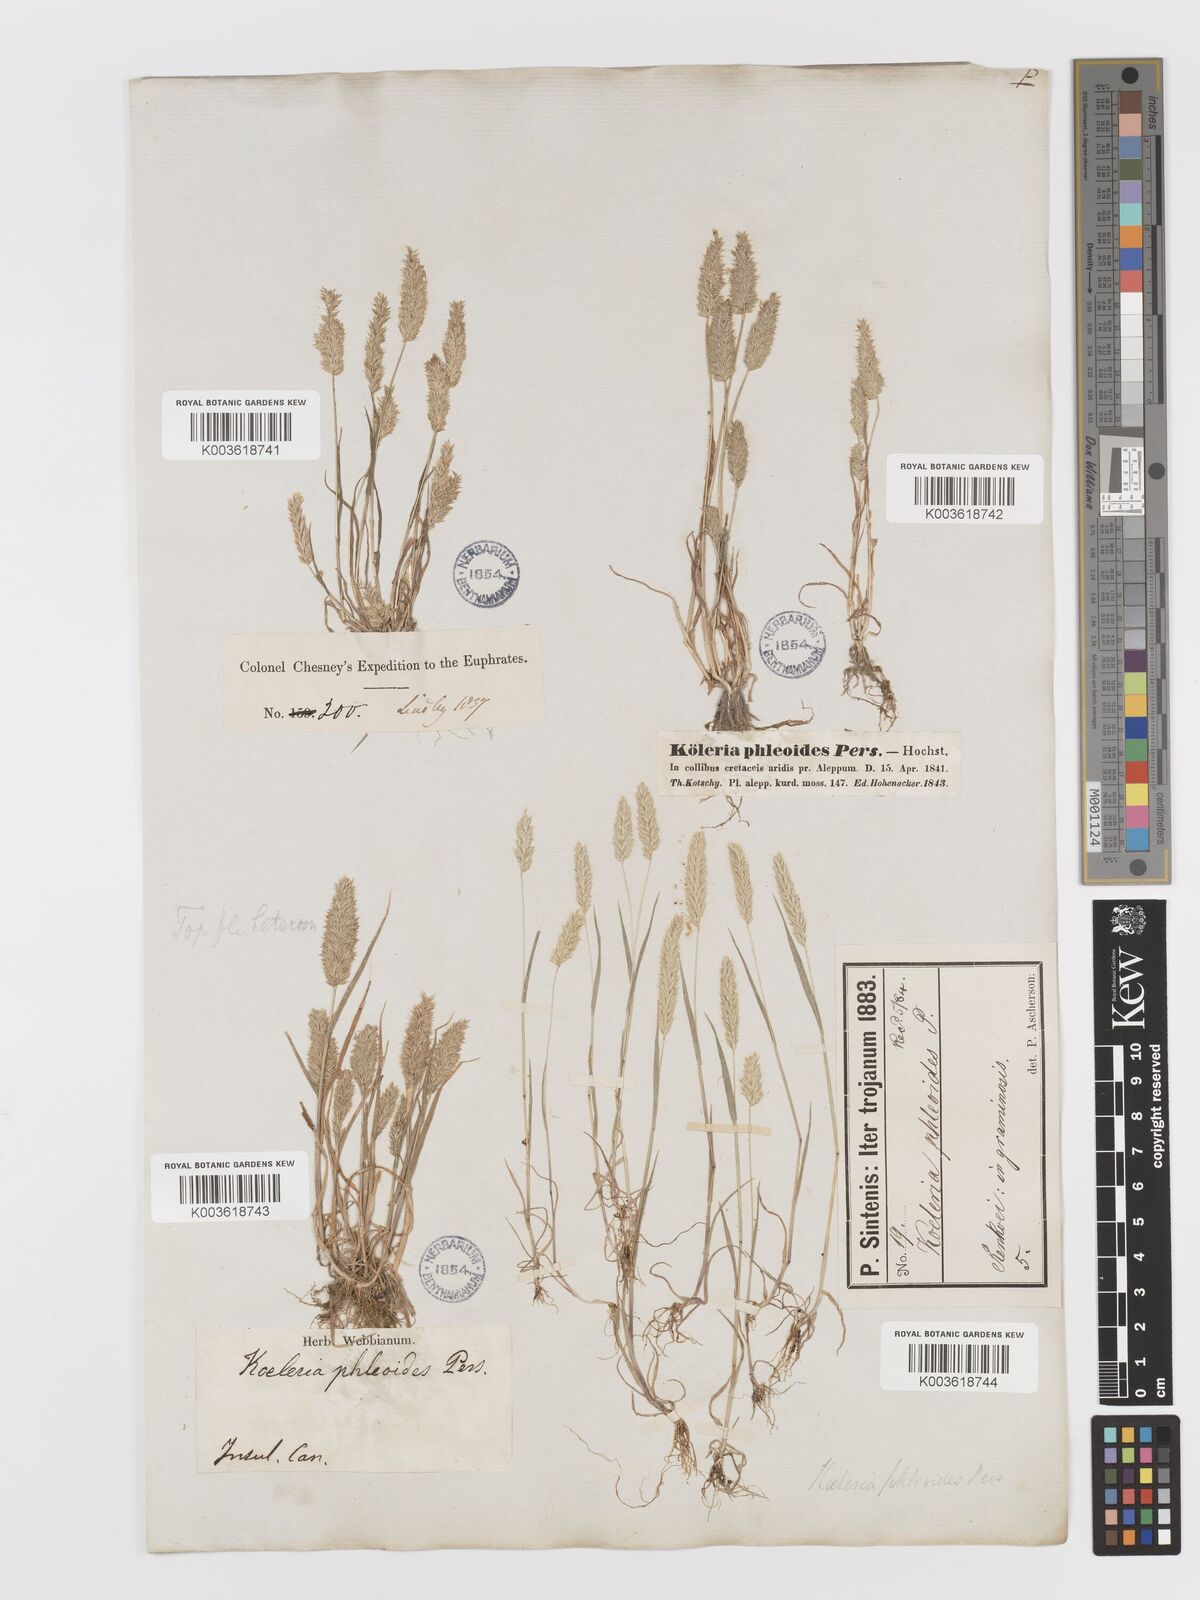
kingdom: Plantae
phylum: Tracheophyta
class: Liliopsida
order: Poales
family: Poaceae
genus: Rostraria
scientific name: Rostraria cristata
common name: Mediterranean hair-grass
